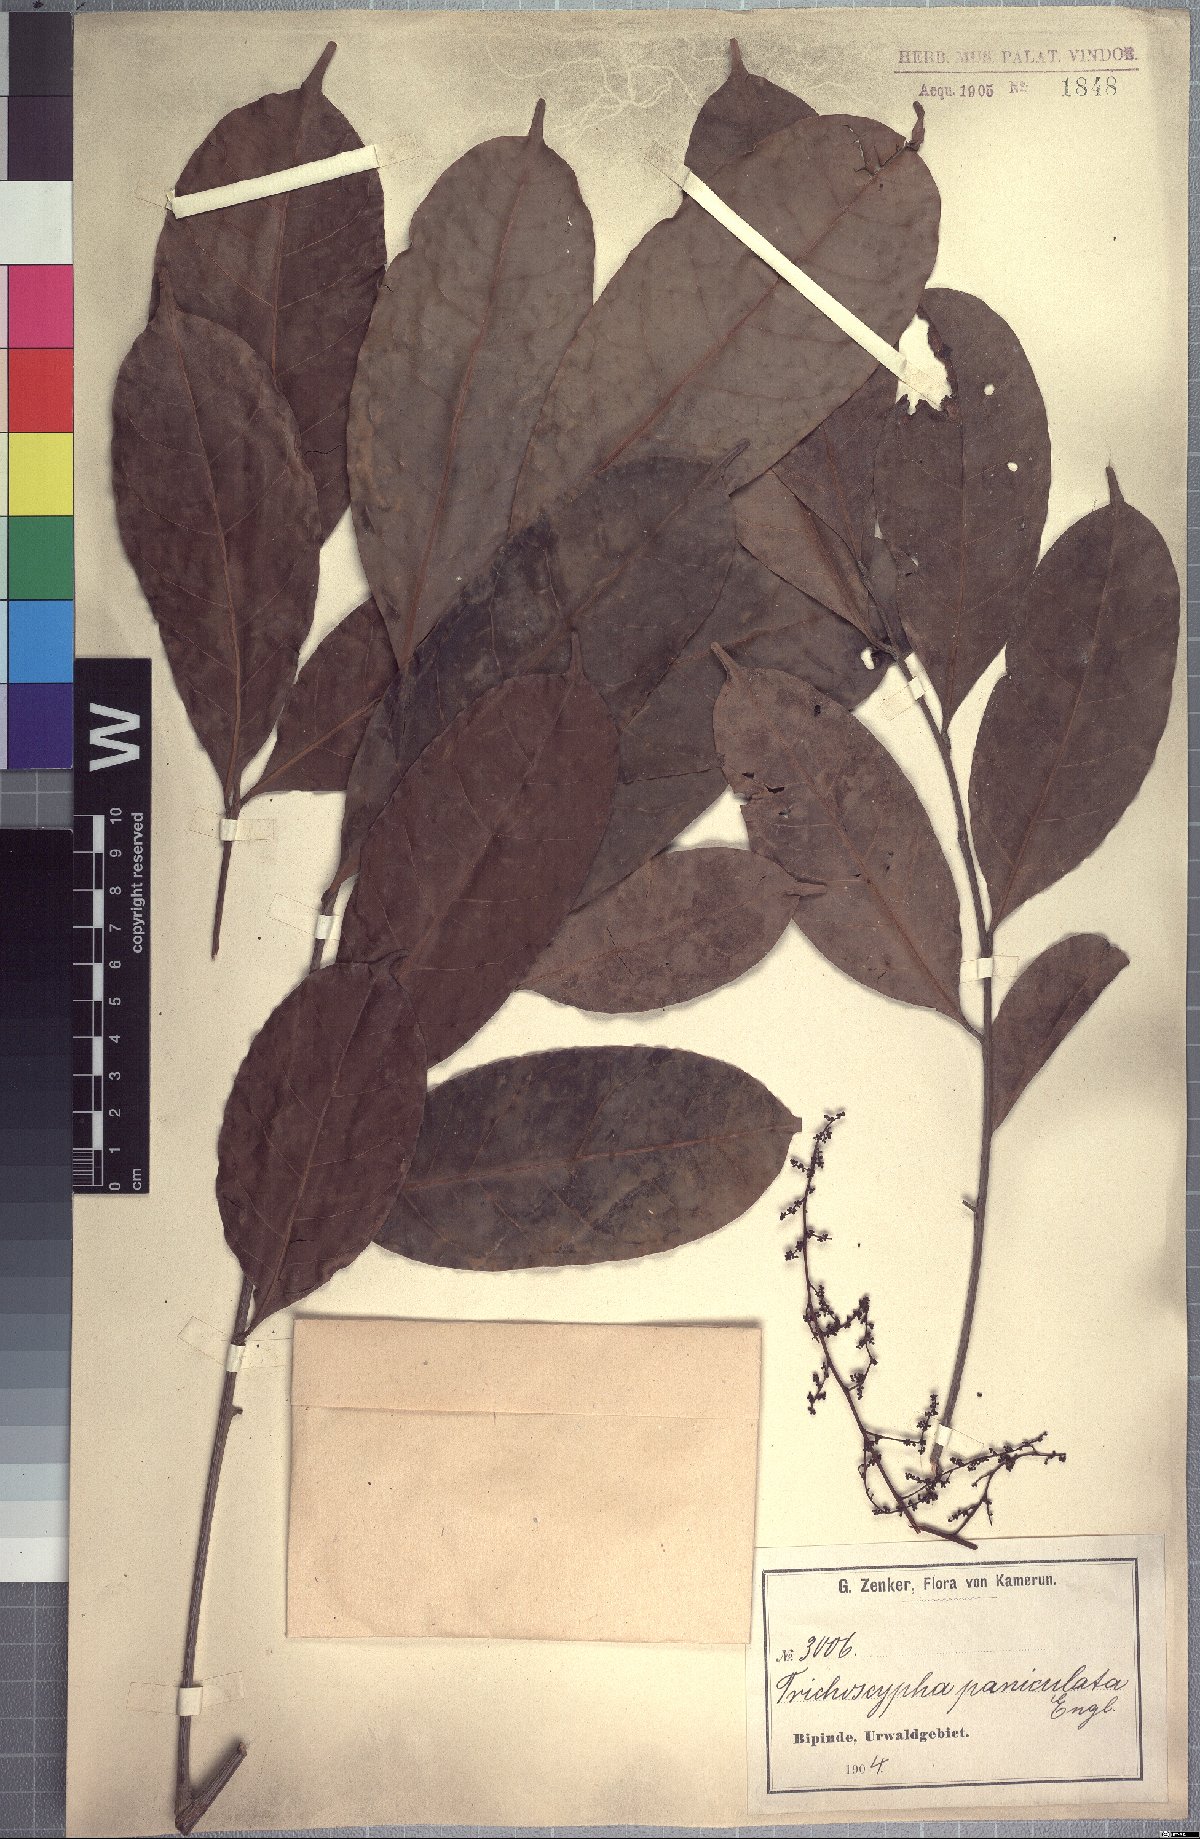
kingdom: Plantae
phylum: Tracheophyta
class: Magnoliopsida
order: Sapindales
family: Anacardiaceae
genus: Trichoscypha
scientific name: Trichoscypha patens
